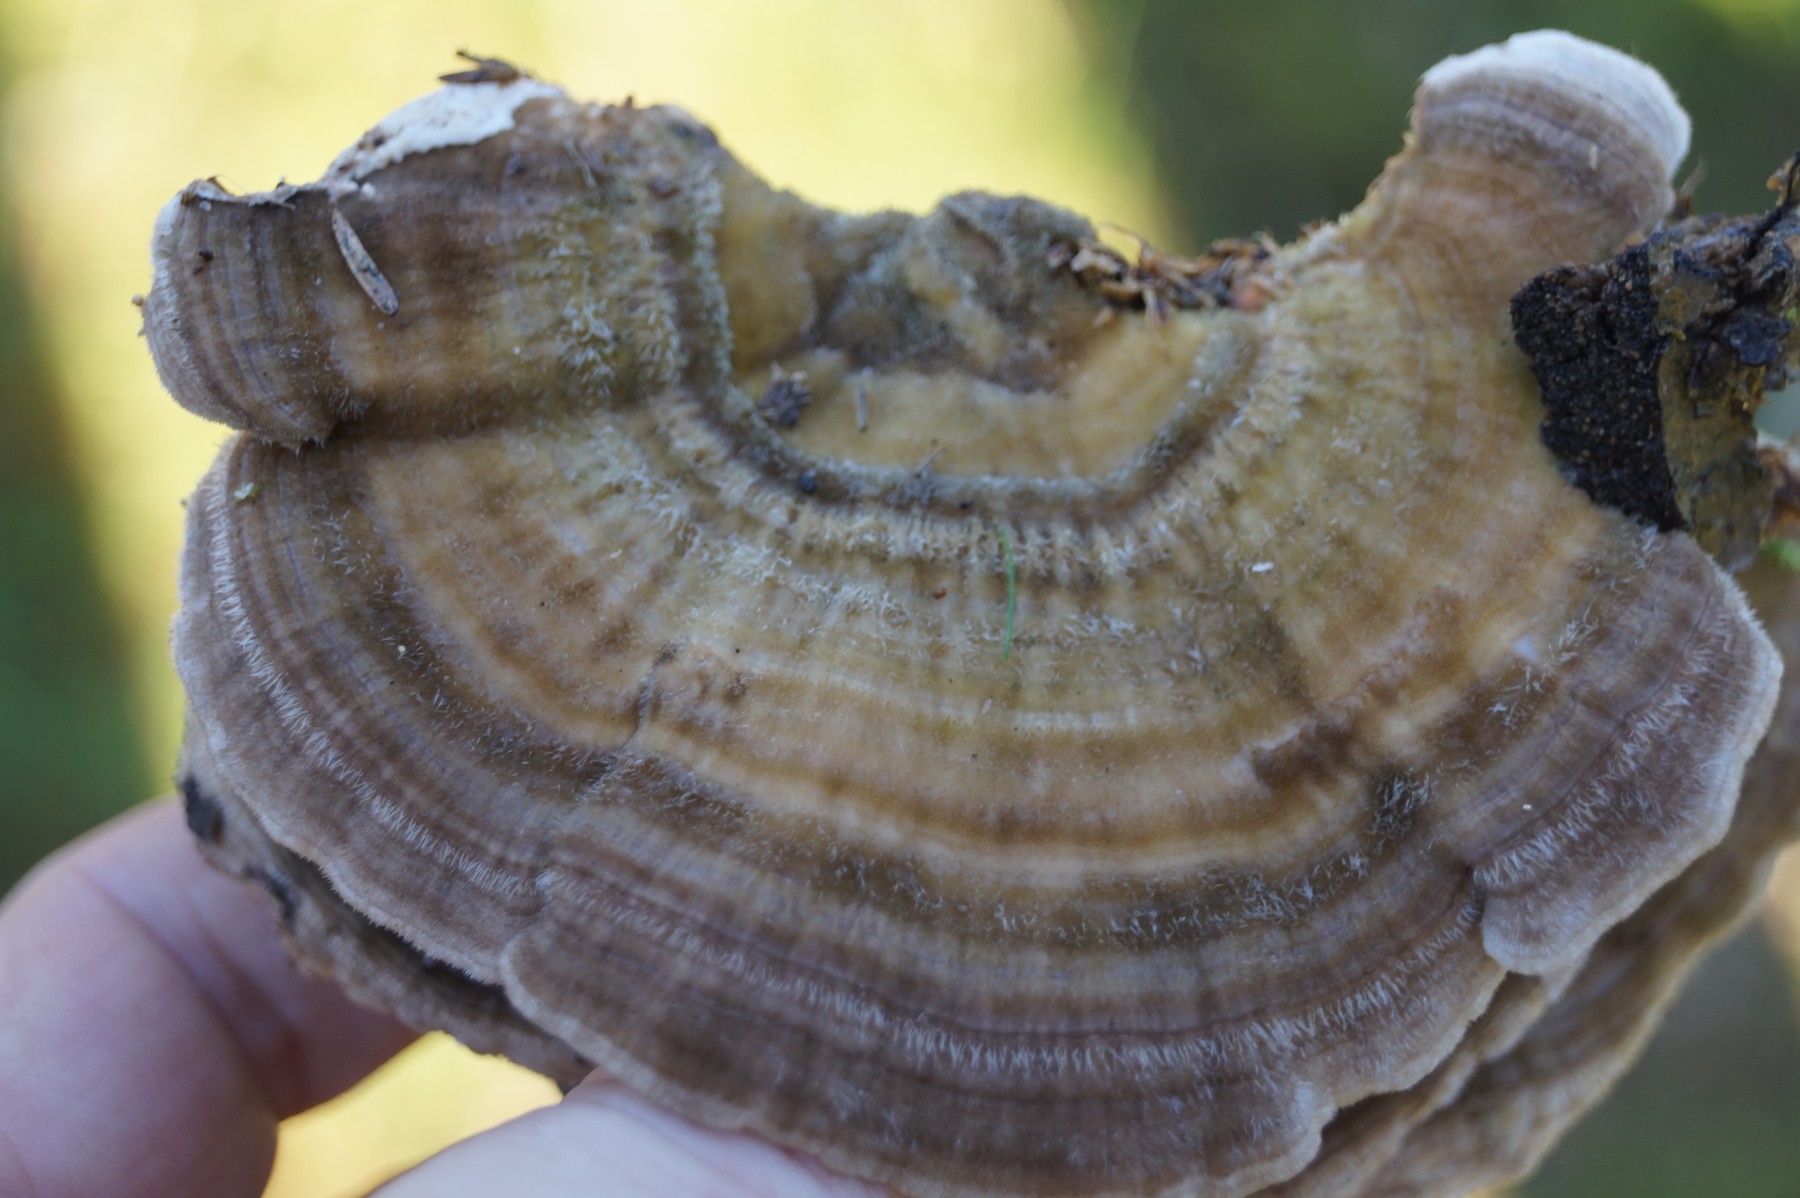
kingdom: Fungi
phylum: Basidiomycota
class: Agaricomycetes
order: Polyporales
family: Polyporaceae
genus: Lenzites
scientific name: Lenzites betulinus
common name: birke-læderporesvamp
